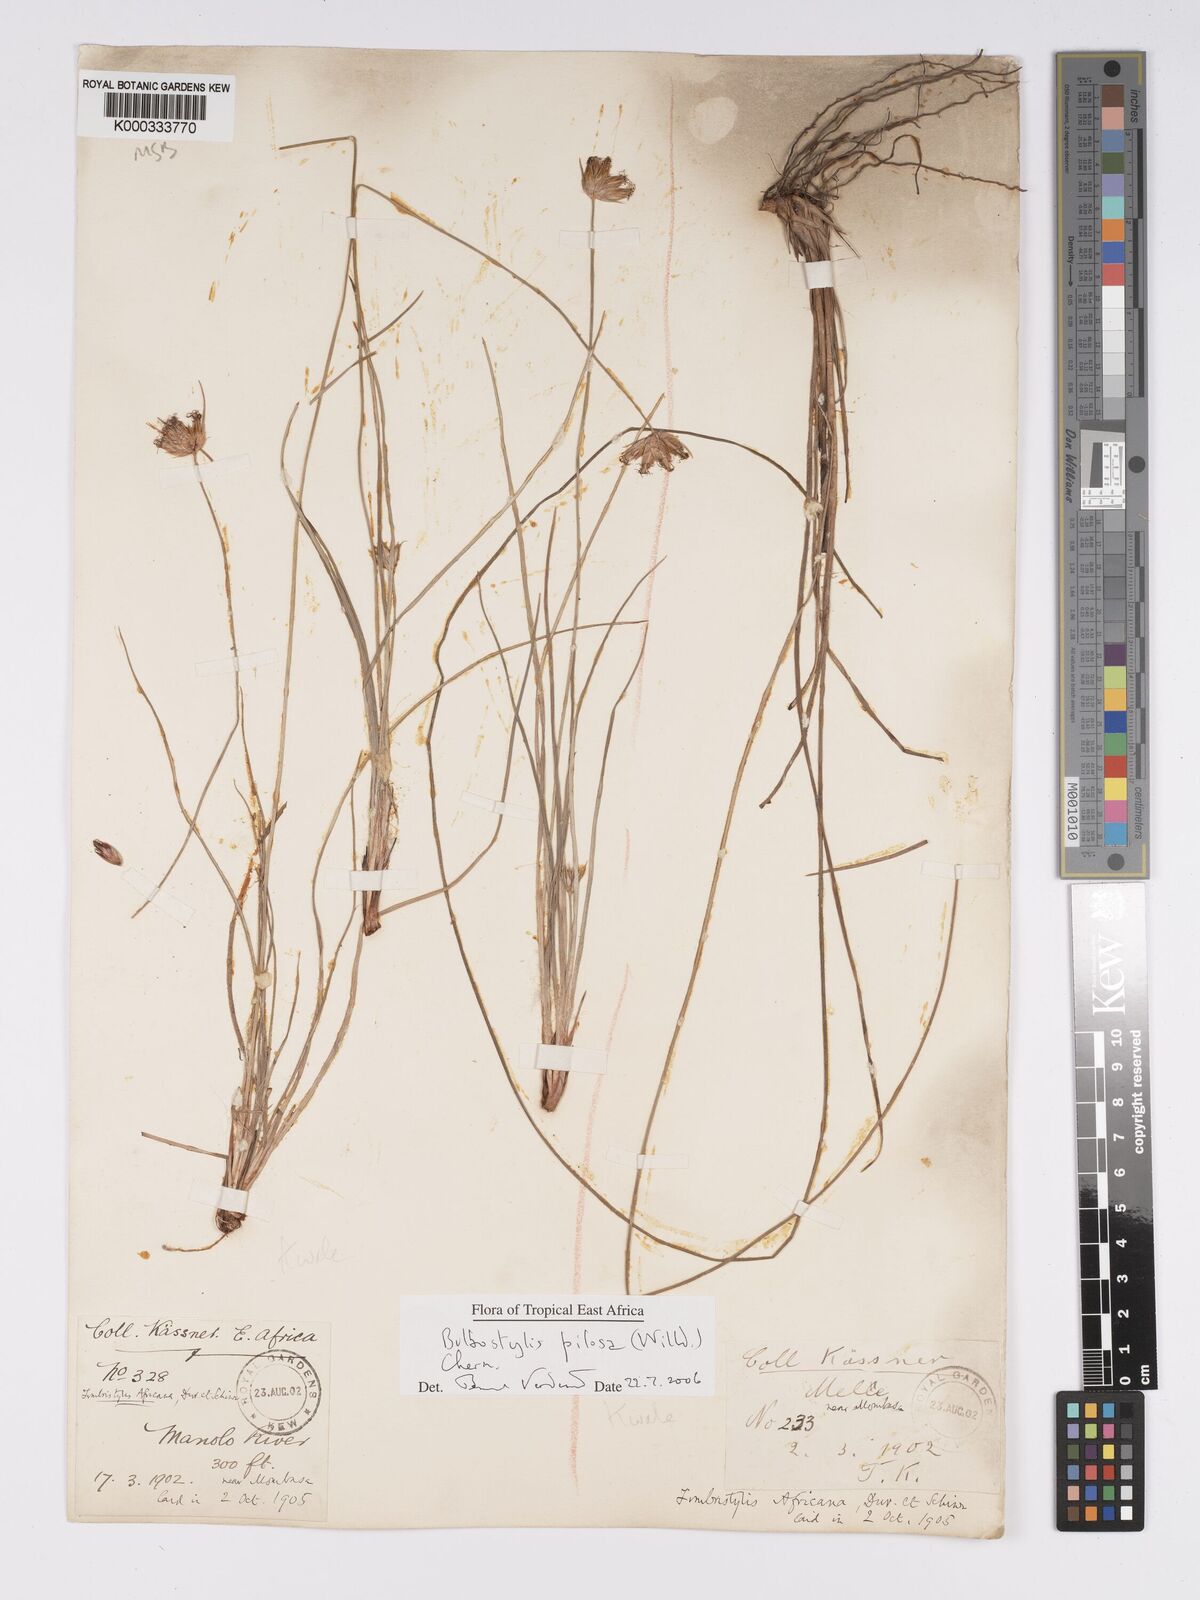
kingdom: Plantae
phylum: Tracheophyta
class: Liliopsida
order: Poales
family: Cyperaceae
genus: Bulbostylis
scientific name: Bulbostylis pilosa
